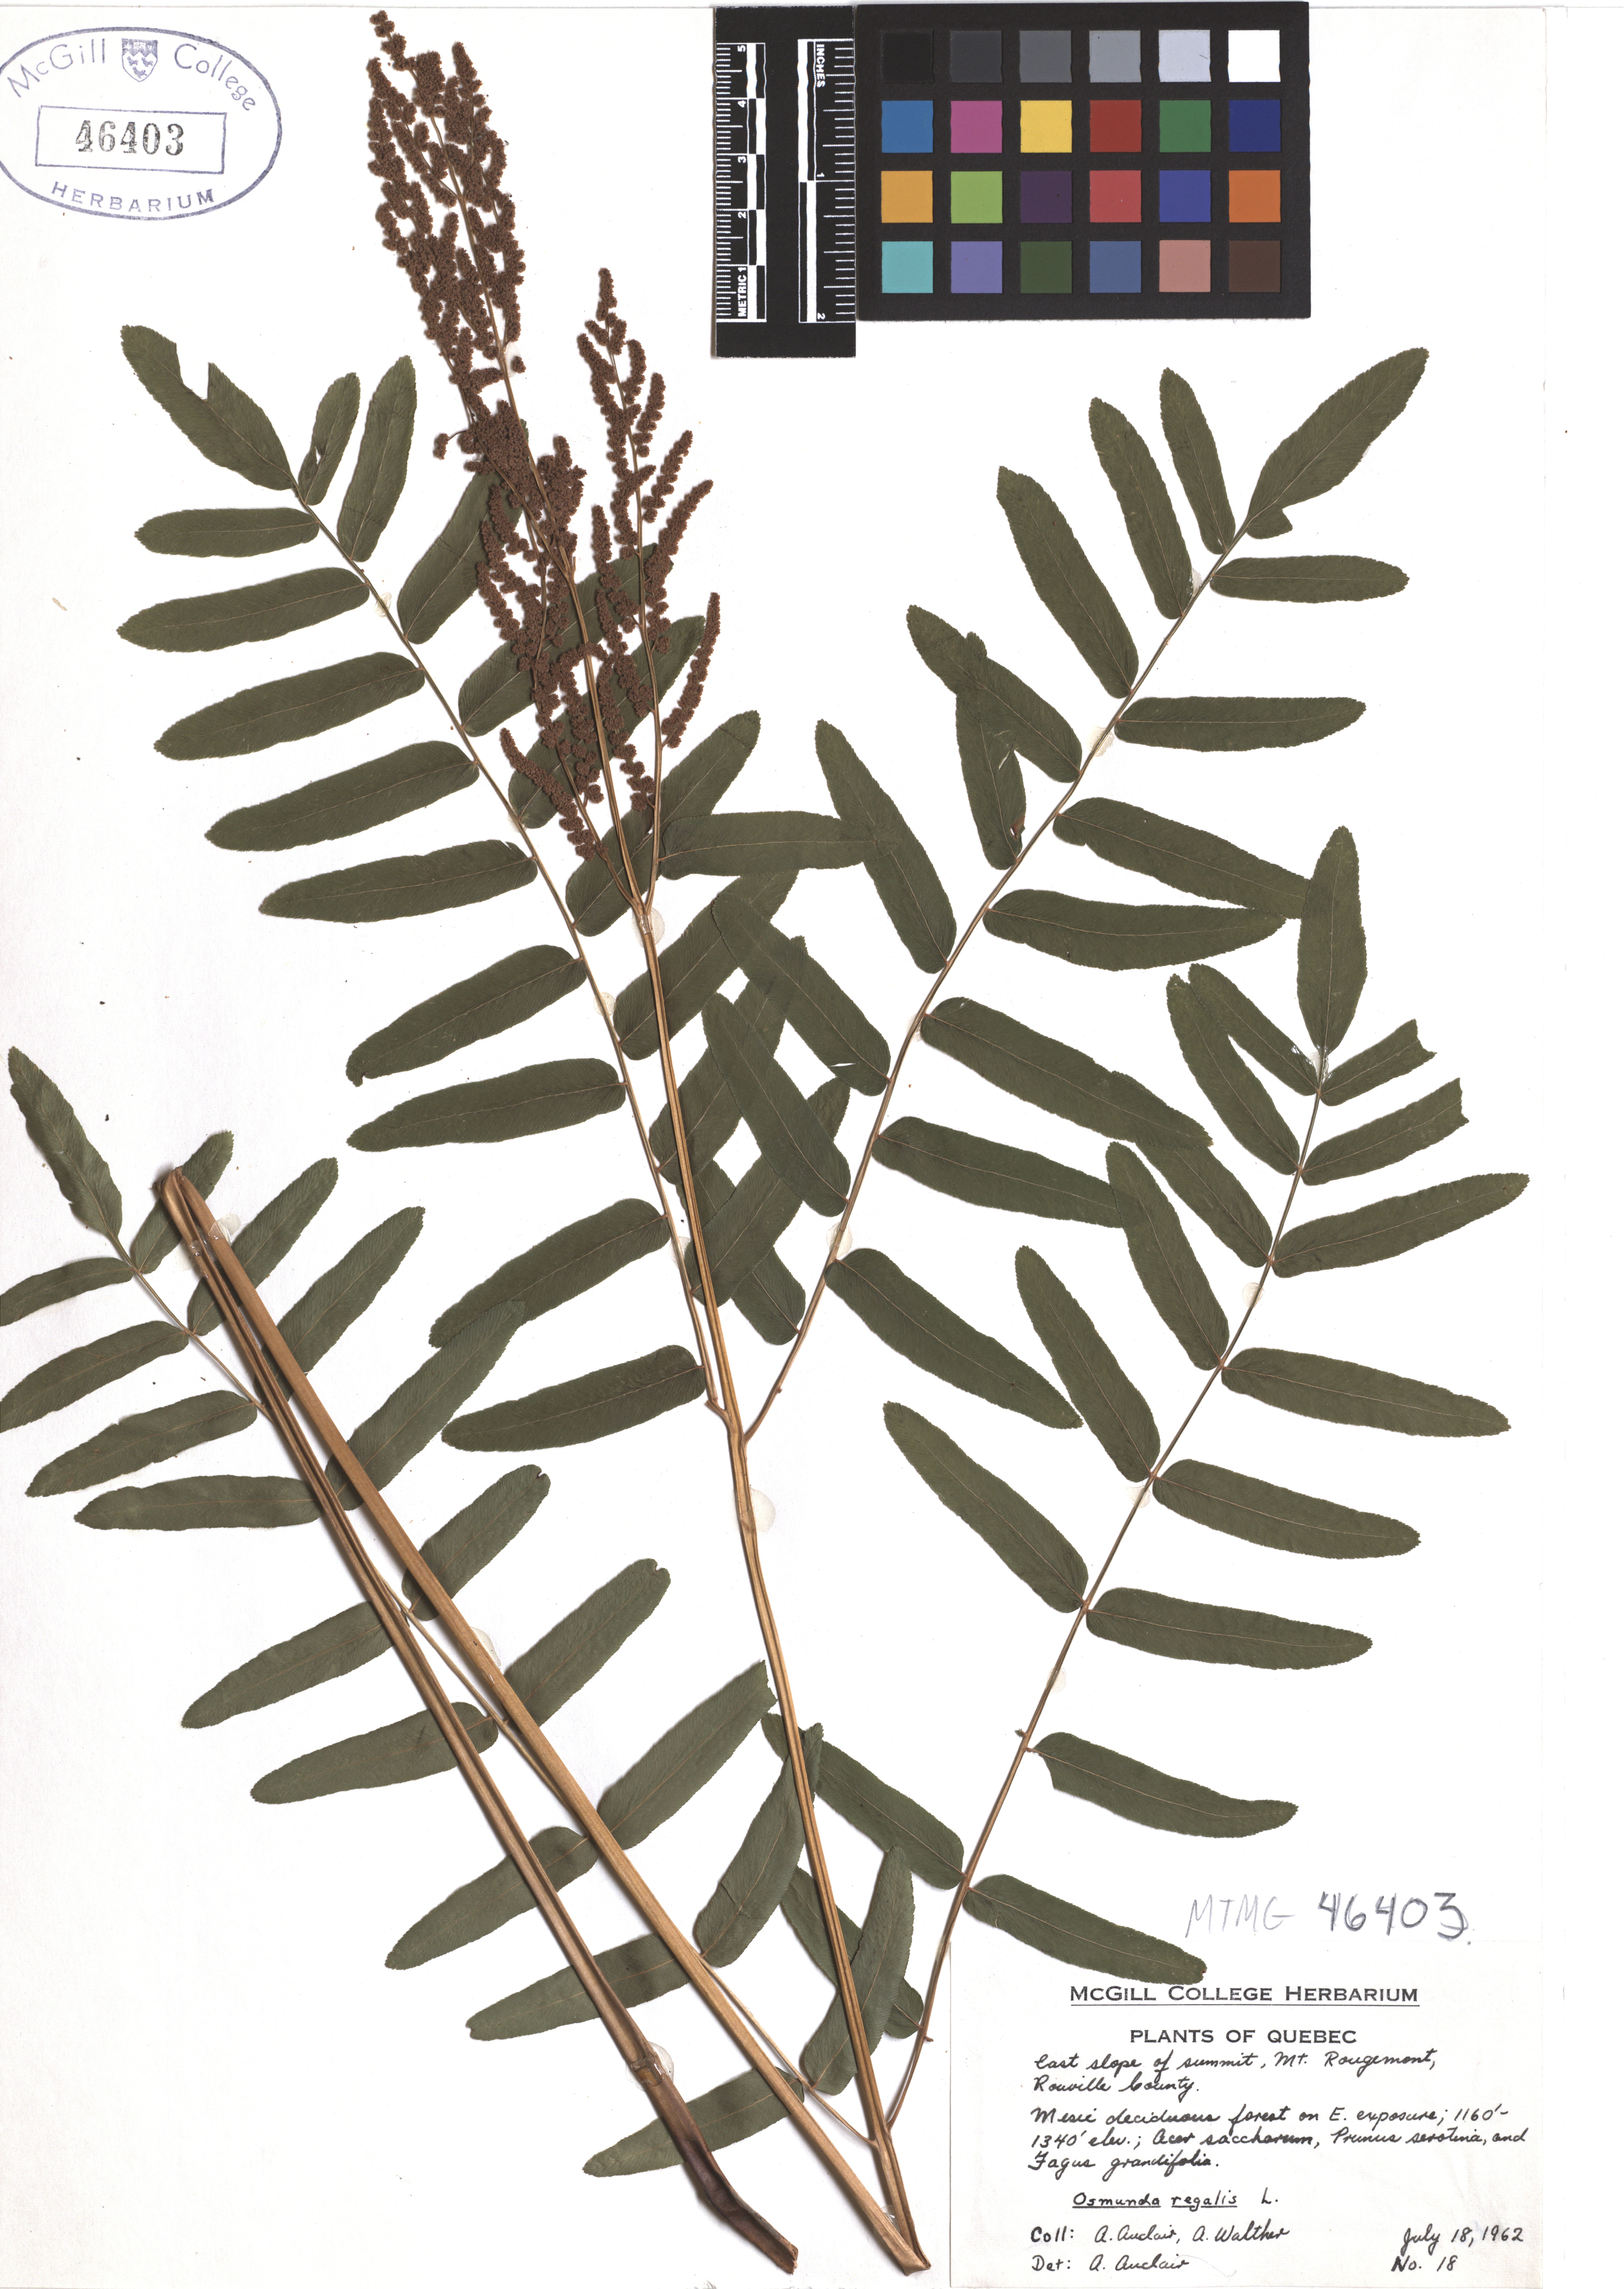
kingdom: Plantae
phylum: Tracheophyta
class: Polypodiopsida
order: Osmundales
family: Osmundaceae
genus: Osmunda
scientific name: Osmunda regalis
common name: Royal fern
